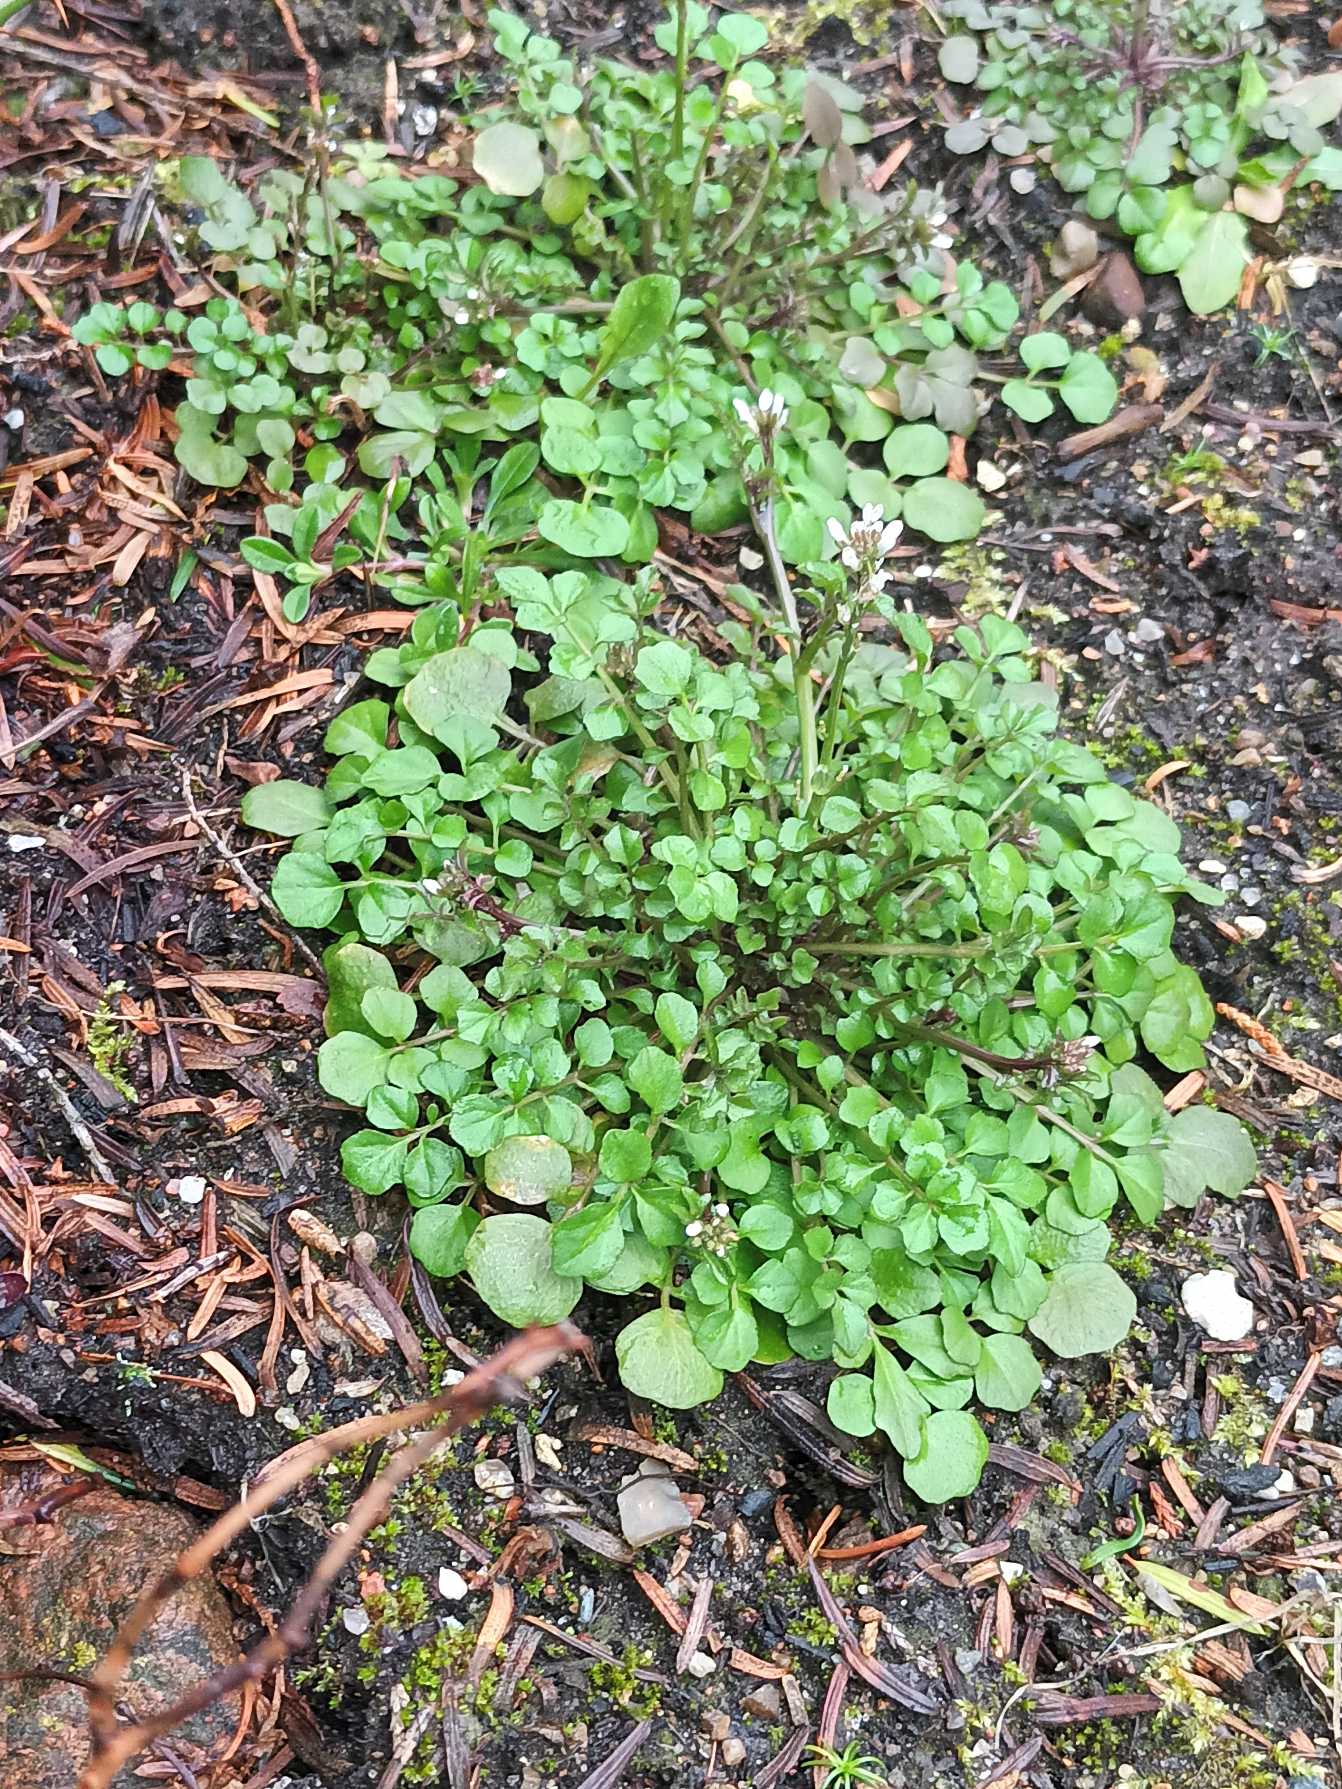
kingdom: Plantae
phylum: Tracheophyta
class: Magnoliopsida
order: Brassicales
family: Brassicaceae
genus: Cardamine
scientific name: Cardamine hirsuta
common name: Roset-springklap
